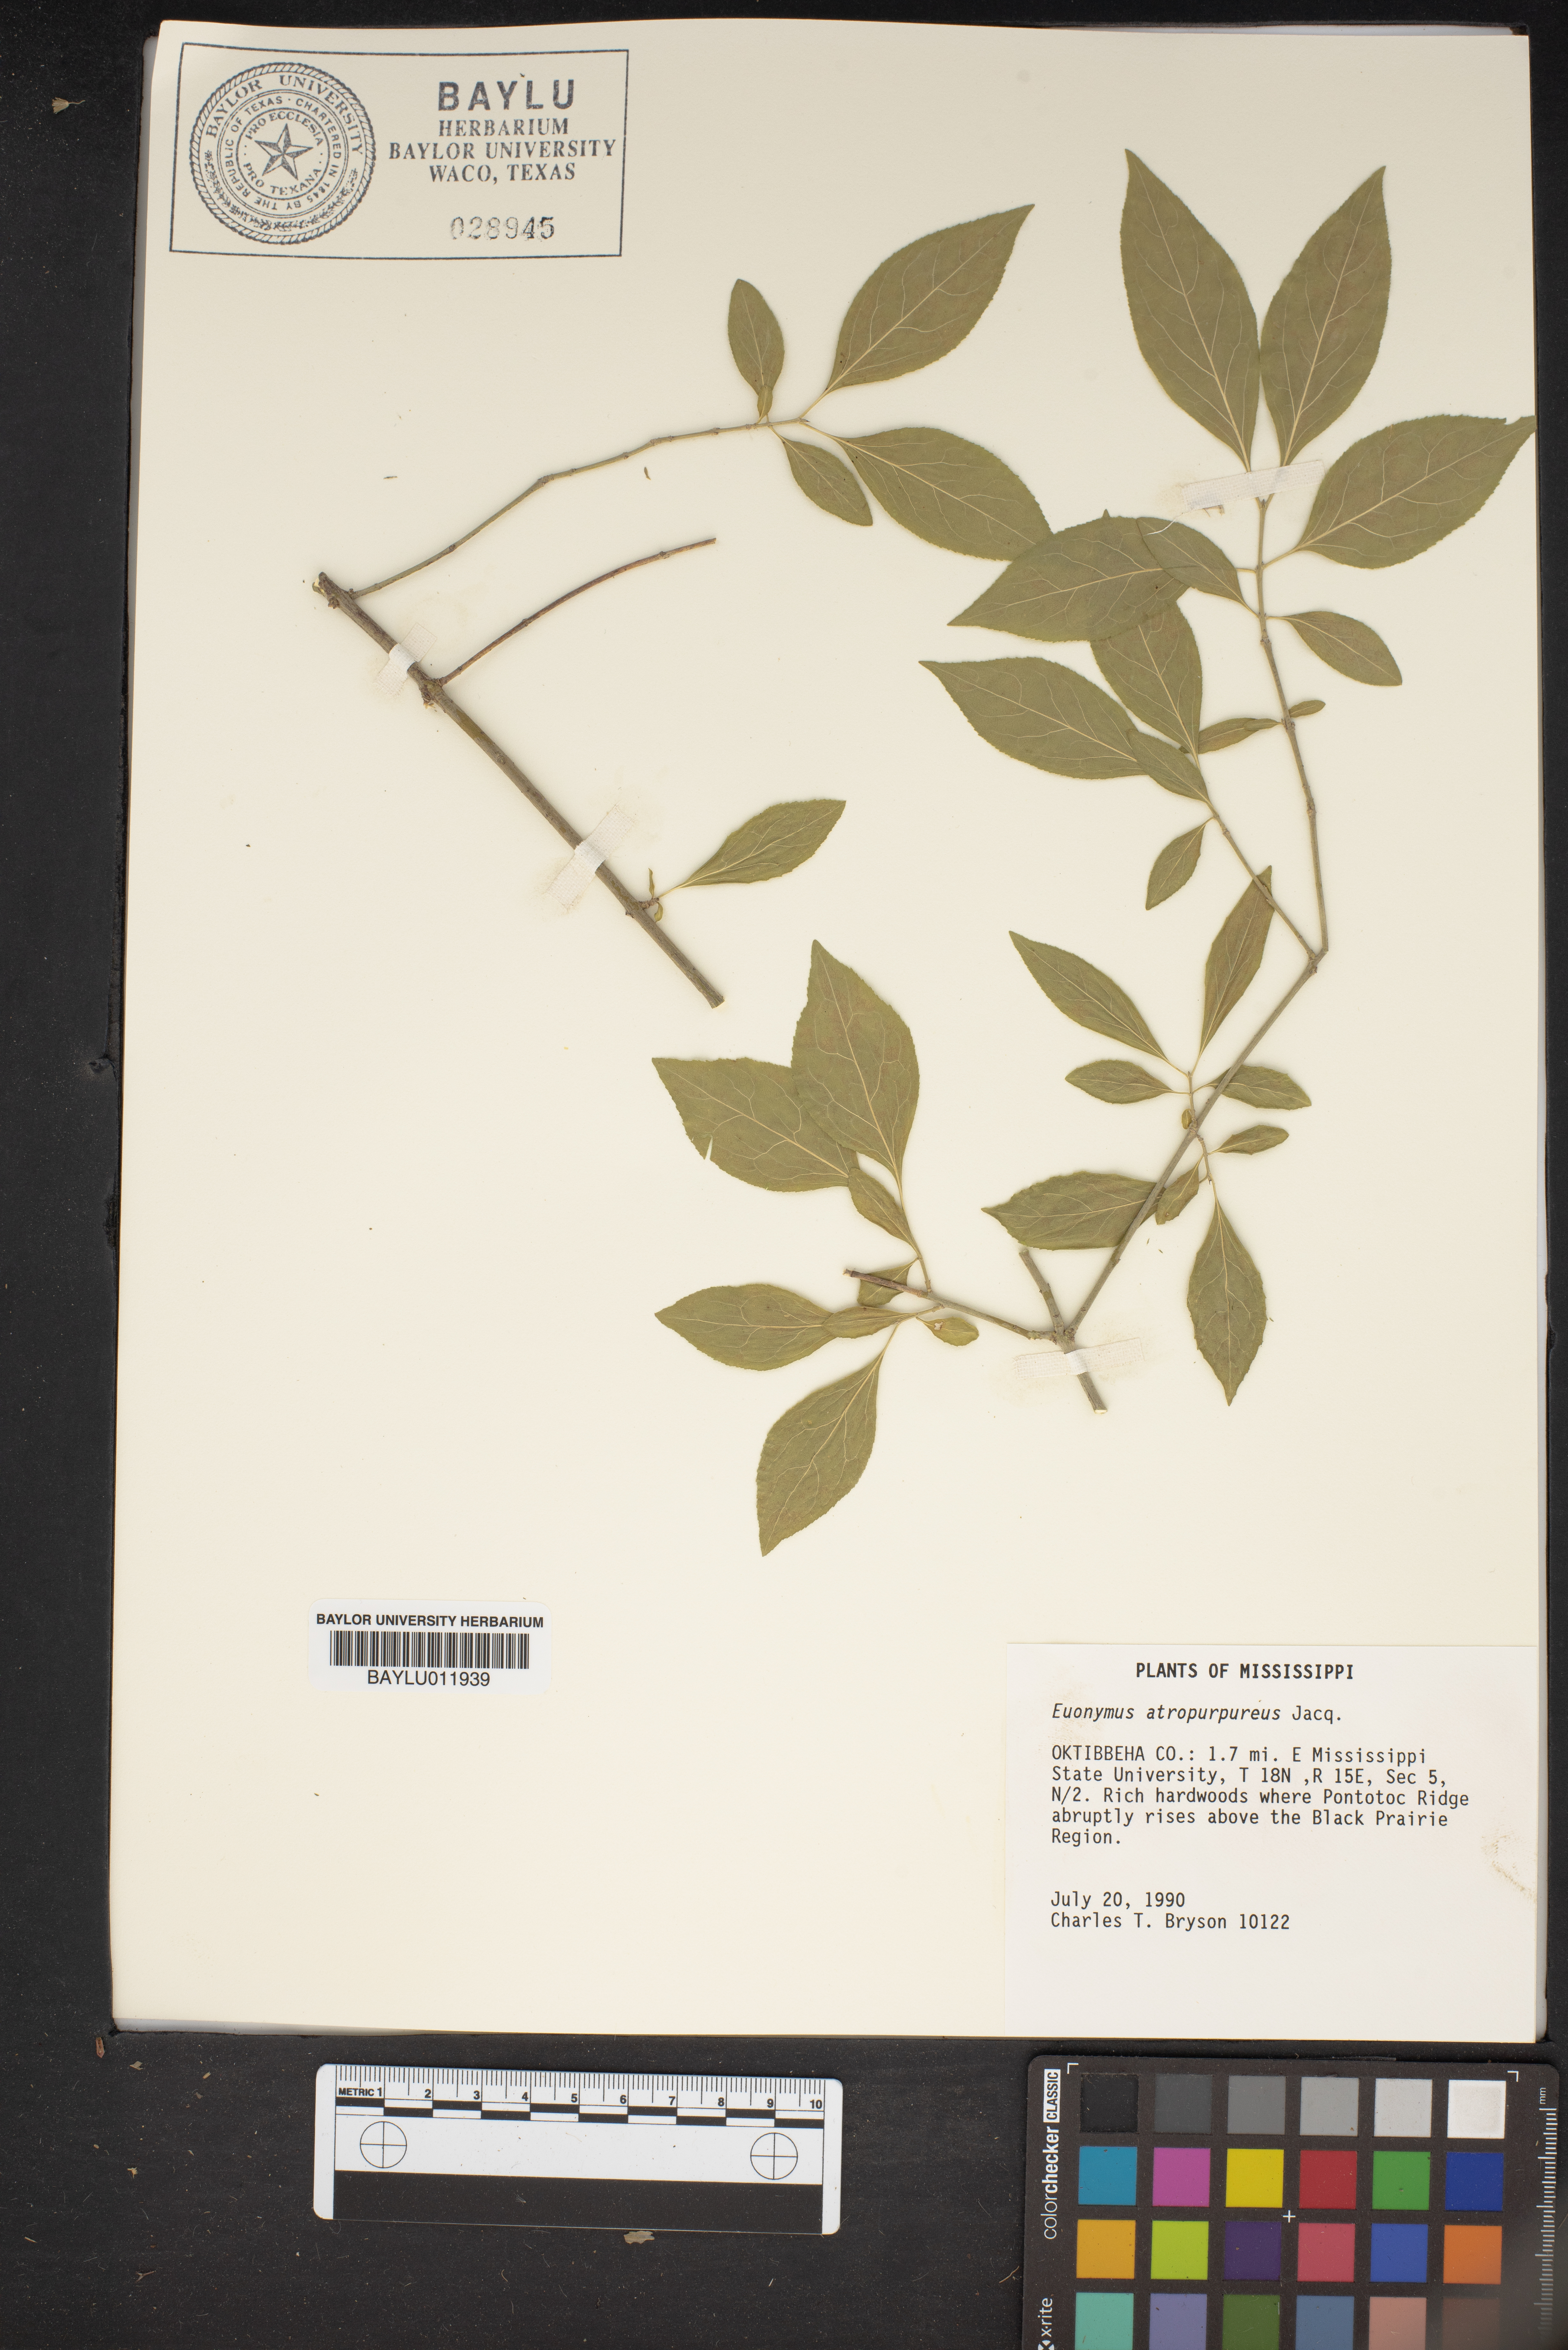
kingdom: Plantae
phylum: Tracheophyta
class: Magnoliopsida
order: Celastrales
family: Celastraceae
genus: Euonymus
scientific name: Euonymus atropurpureus
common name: Eastern wahoo
